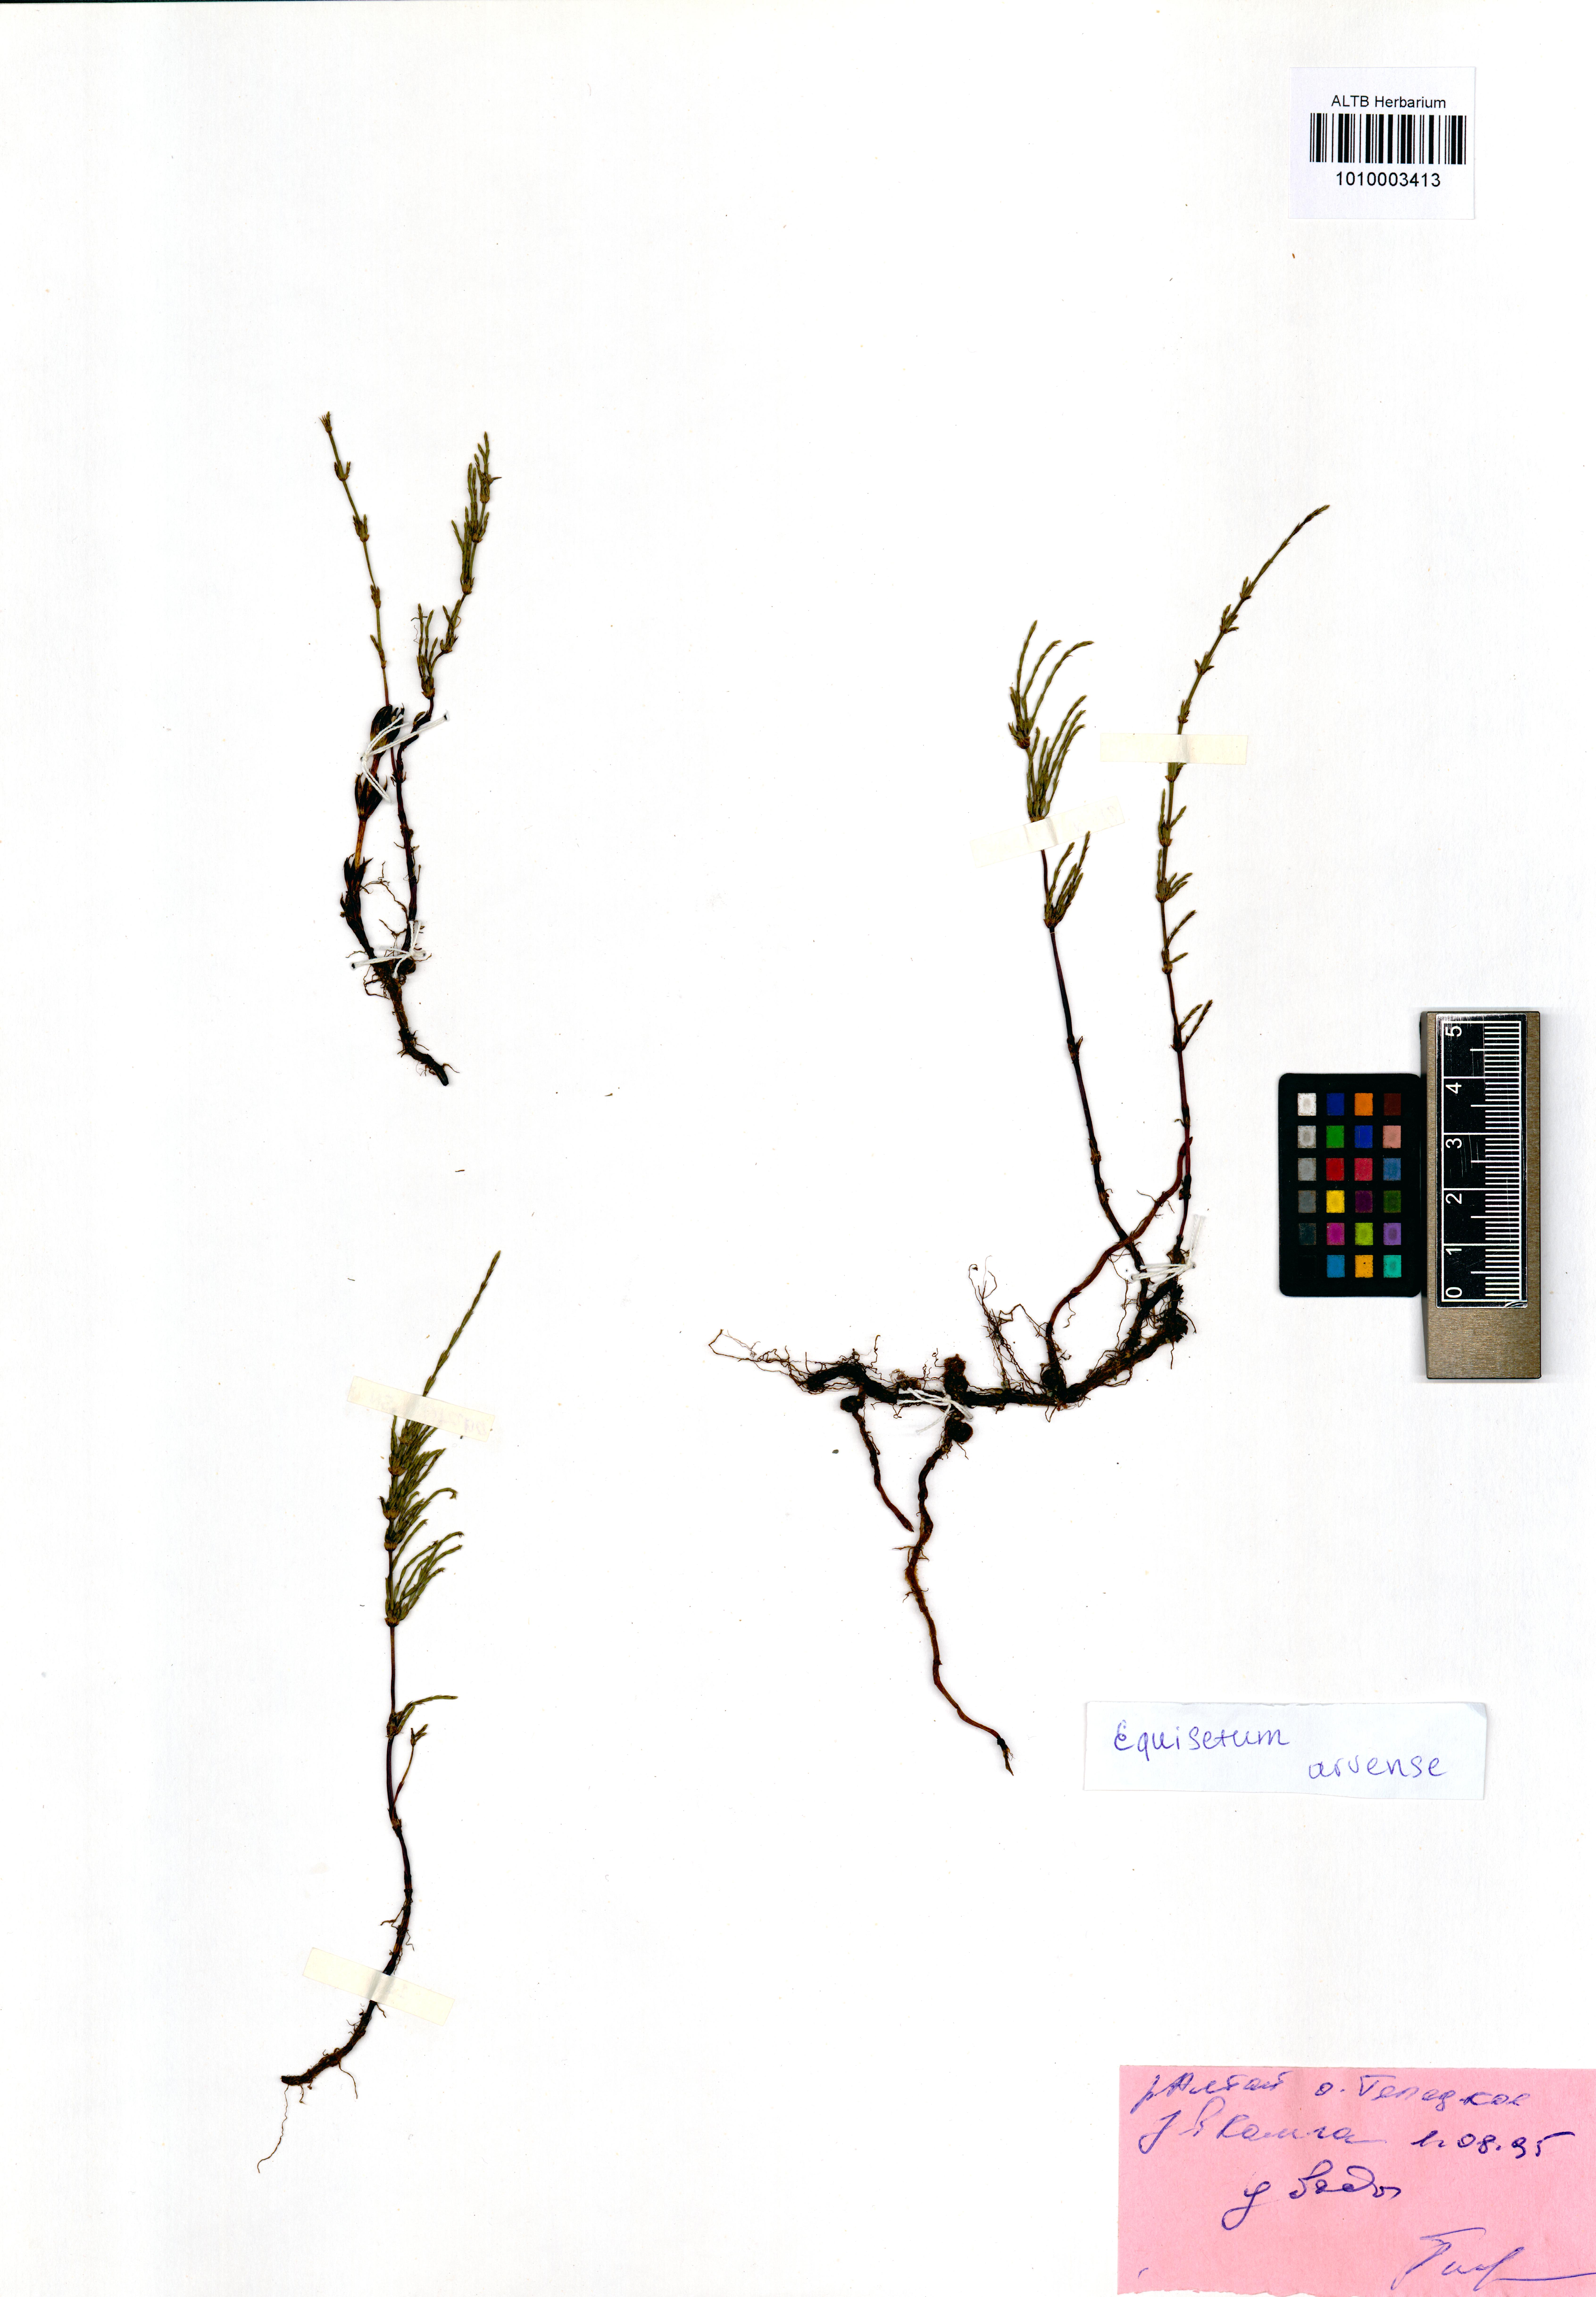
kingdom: Plantae
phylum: Tracheophyta
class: Polypodiopsida
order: Equisetales
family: Equisetaceae
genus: Equisetum
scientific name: Equisetum arvense
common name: Field horsetail
